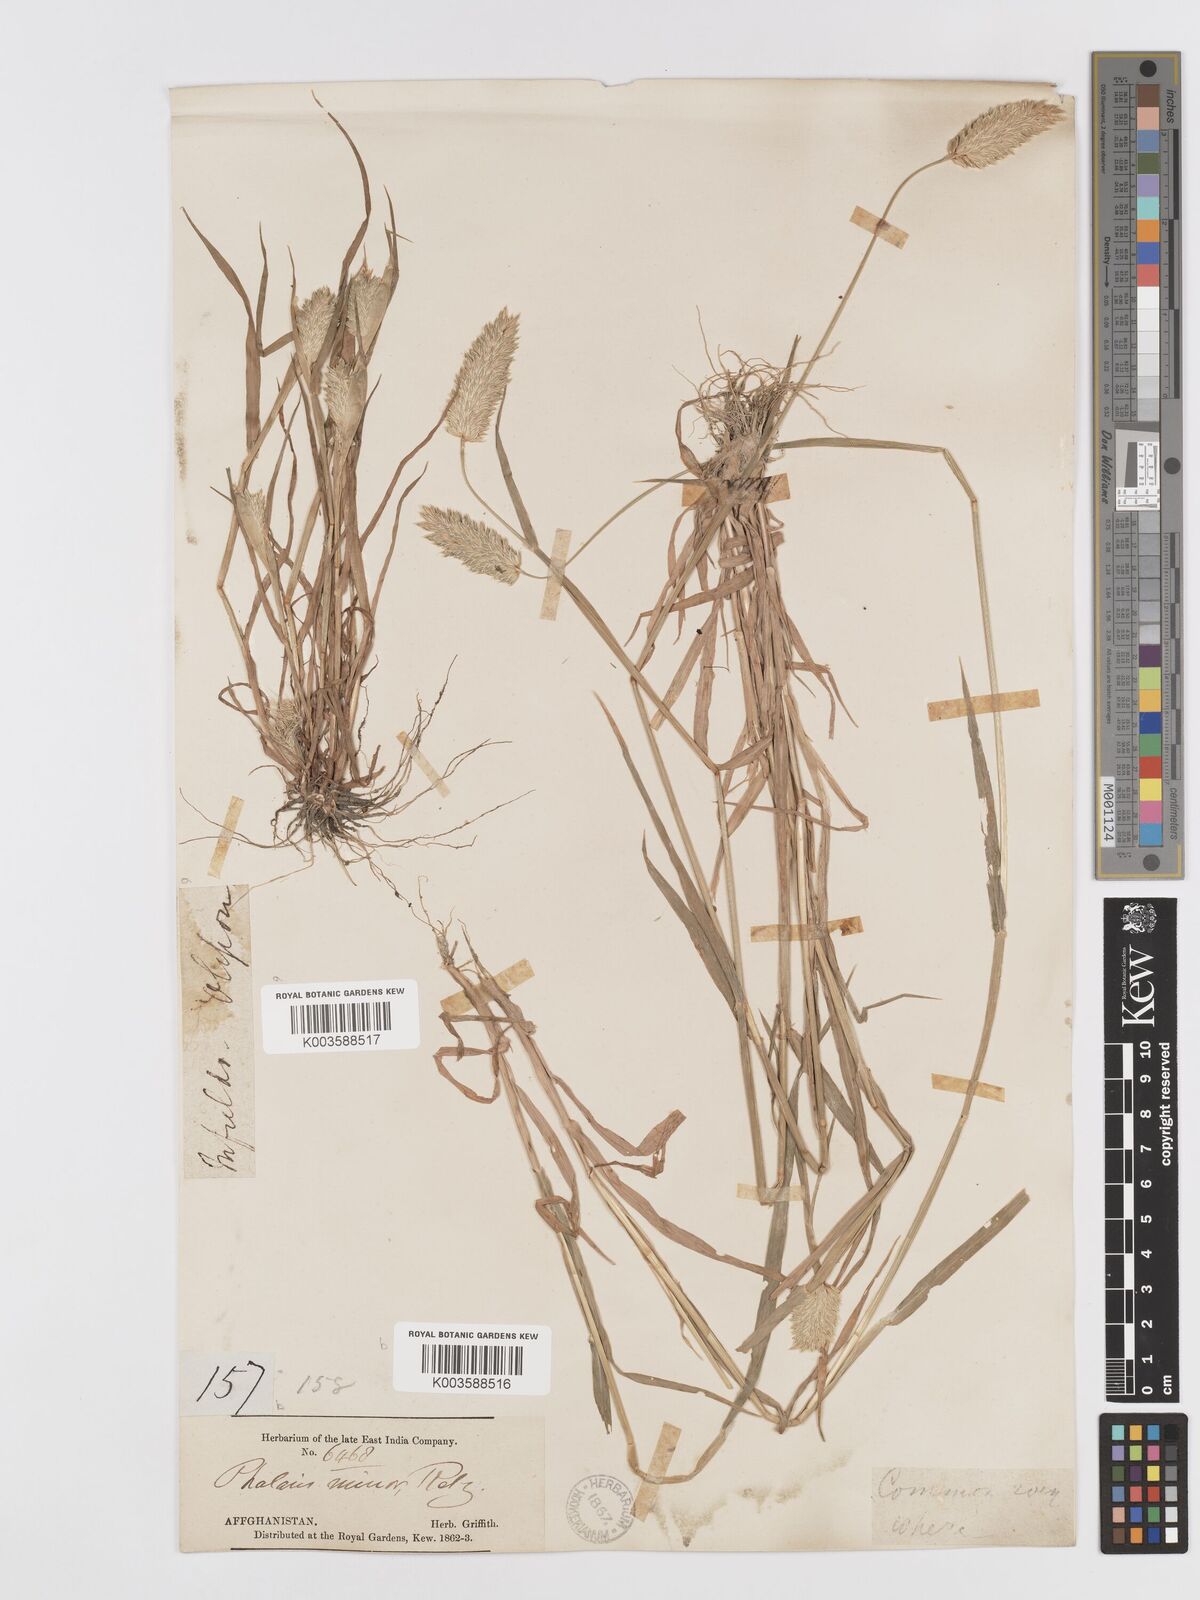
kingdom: Plantae
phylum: Tracheophyta
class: Liliopsida
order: Poales
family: Poaceae
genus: Phalaris
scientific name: Phalaris minor
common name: Littleseed canarygrass
